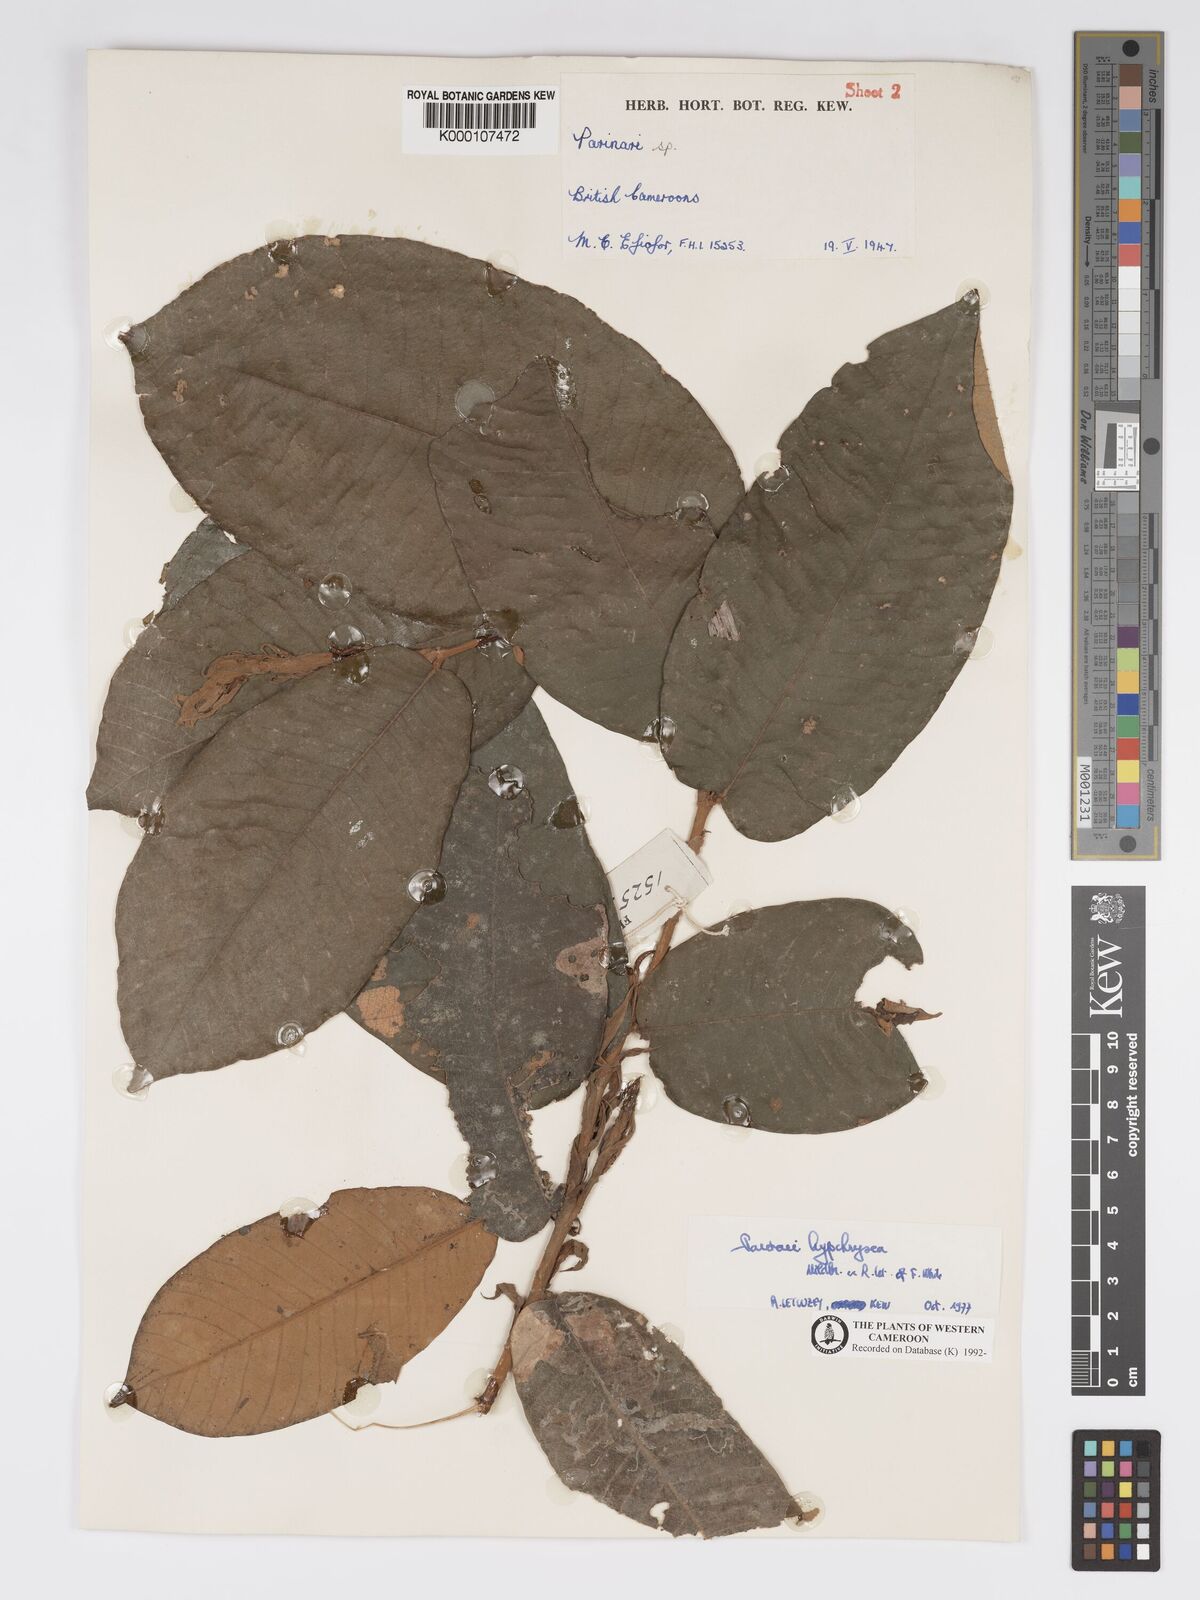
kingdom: Plantae
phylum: Tracheophyta
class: Magnoliopsida
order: Malpighiales
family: Chrysobalanaceae
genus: Parinari
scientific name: Parinari hypochrysea
